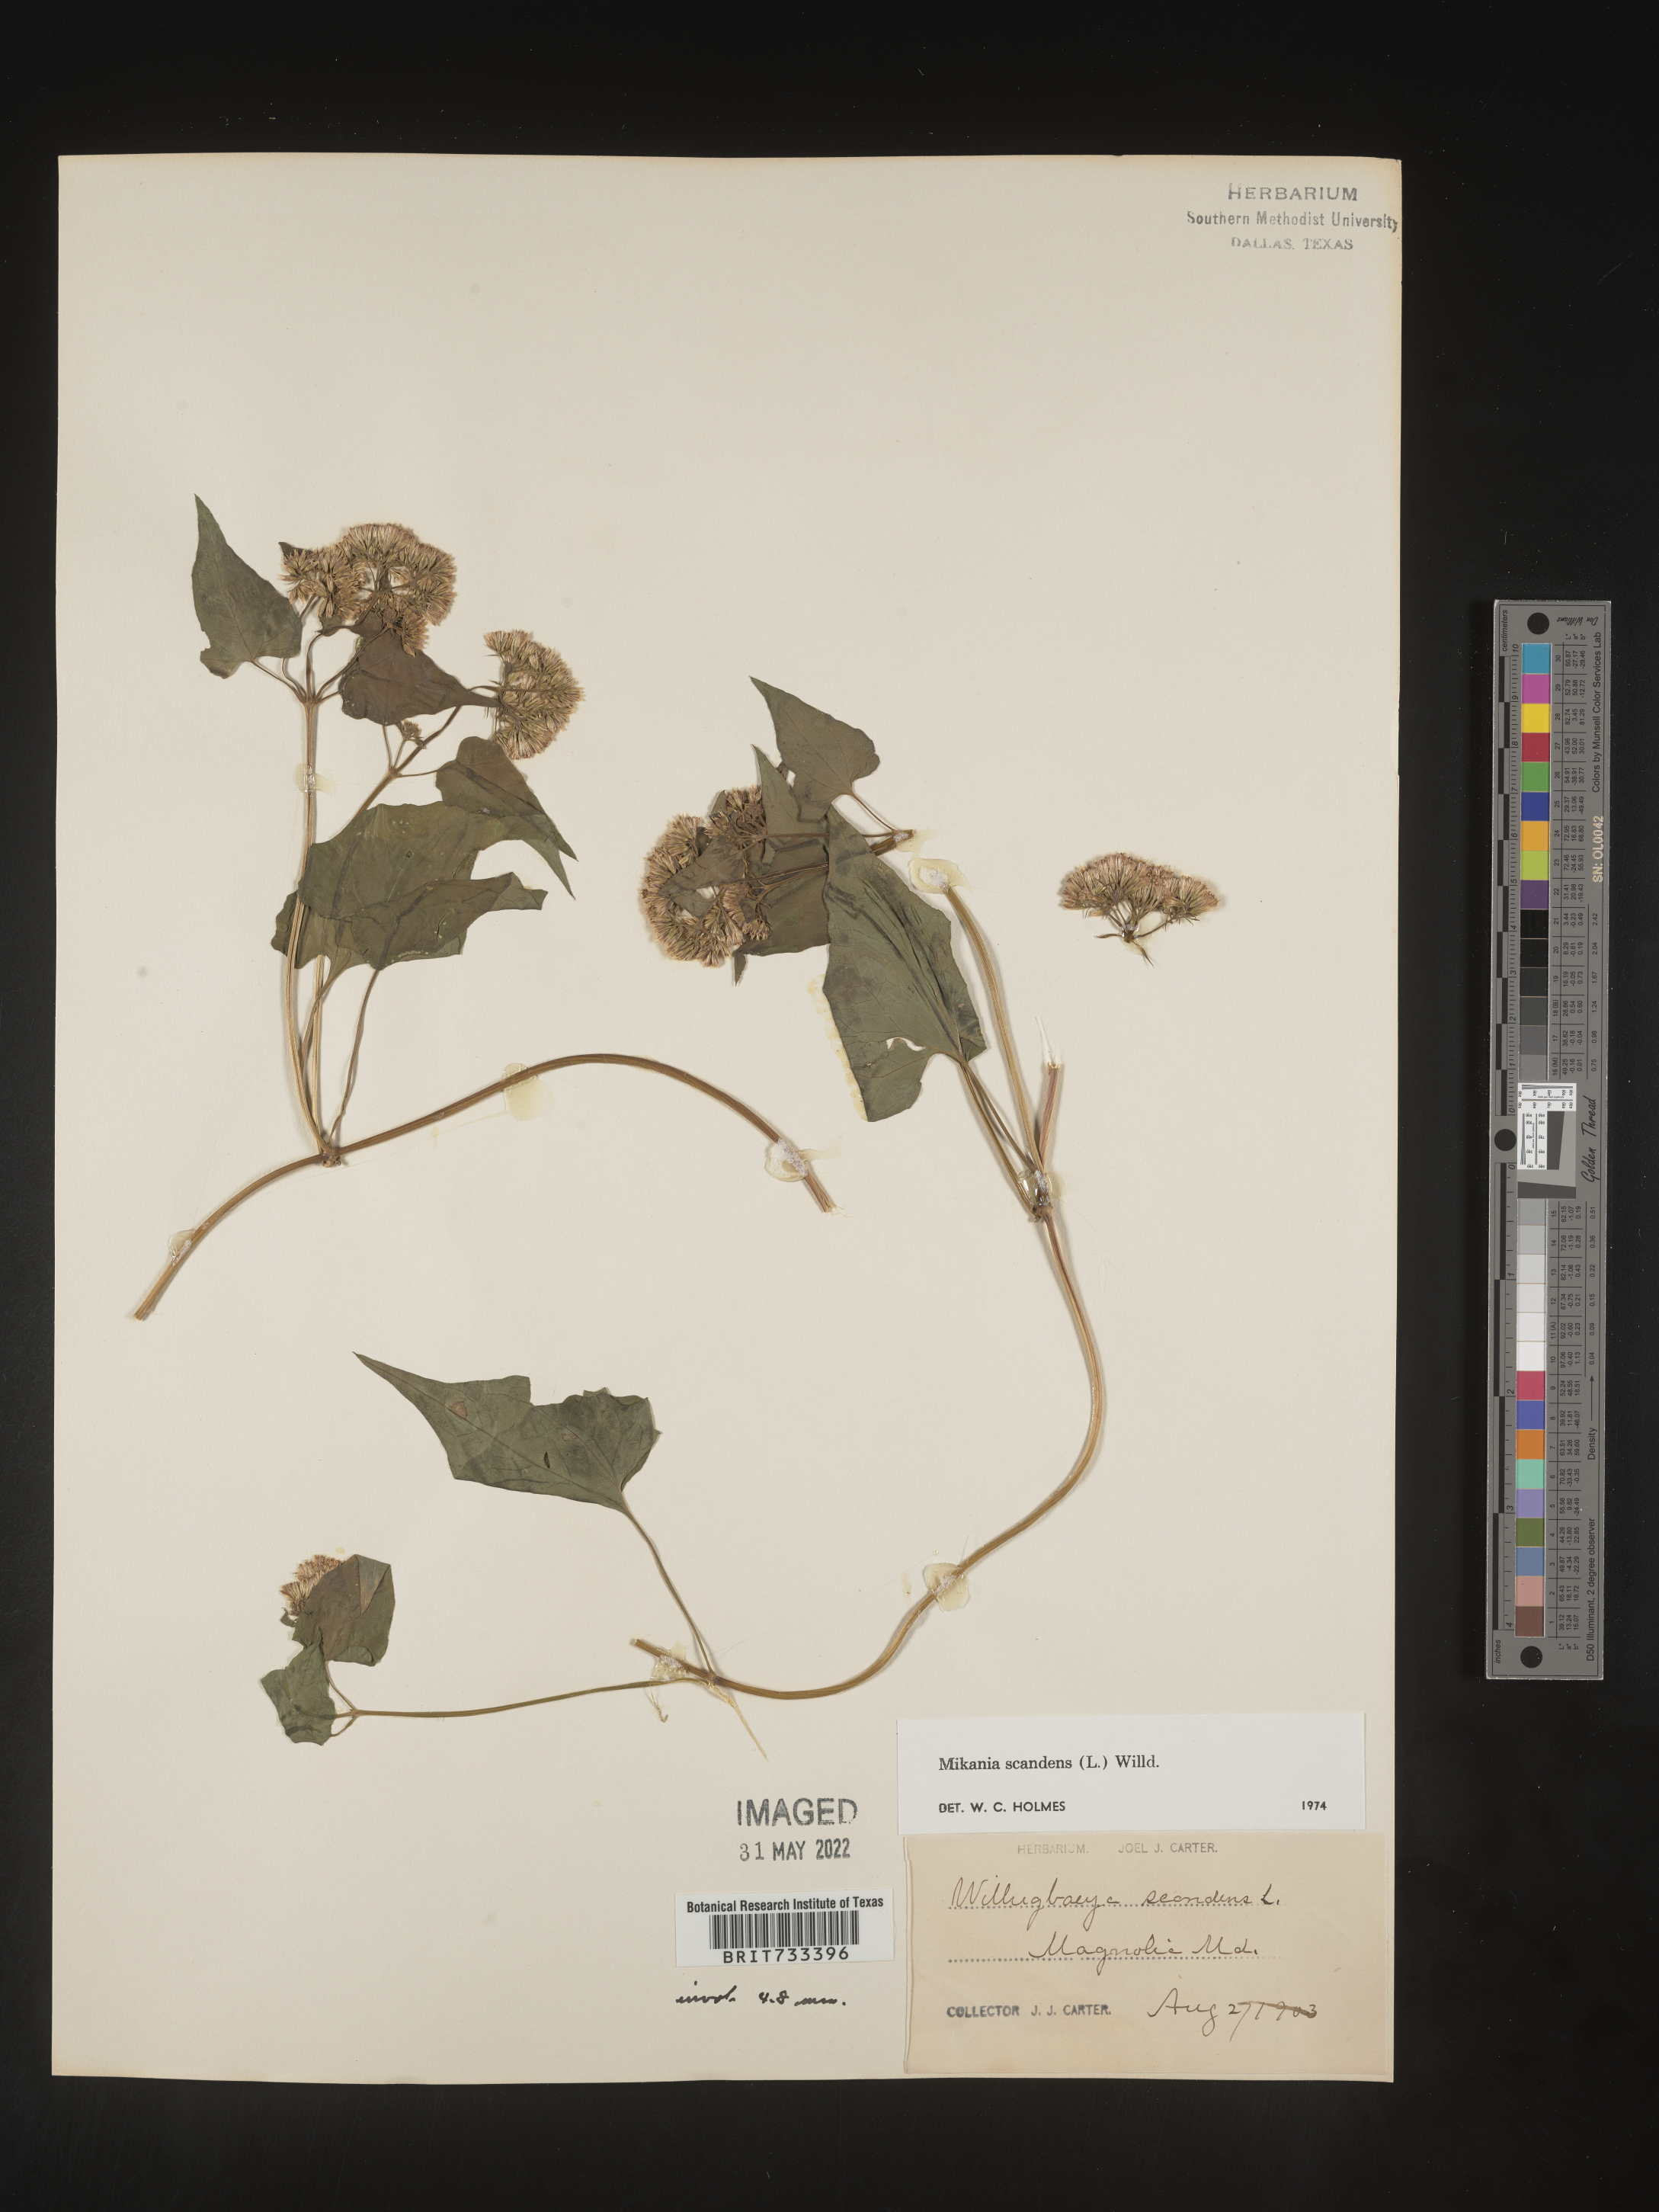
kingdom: Plantae
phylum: Tracheophyta
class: Magnoliopsida
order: Asterales
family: Asteraceae
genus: Mikania
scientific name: Mikania scandens
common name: Climbing hempvine
